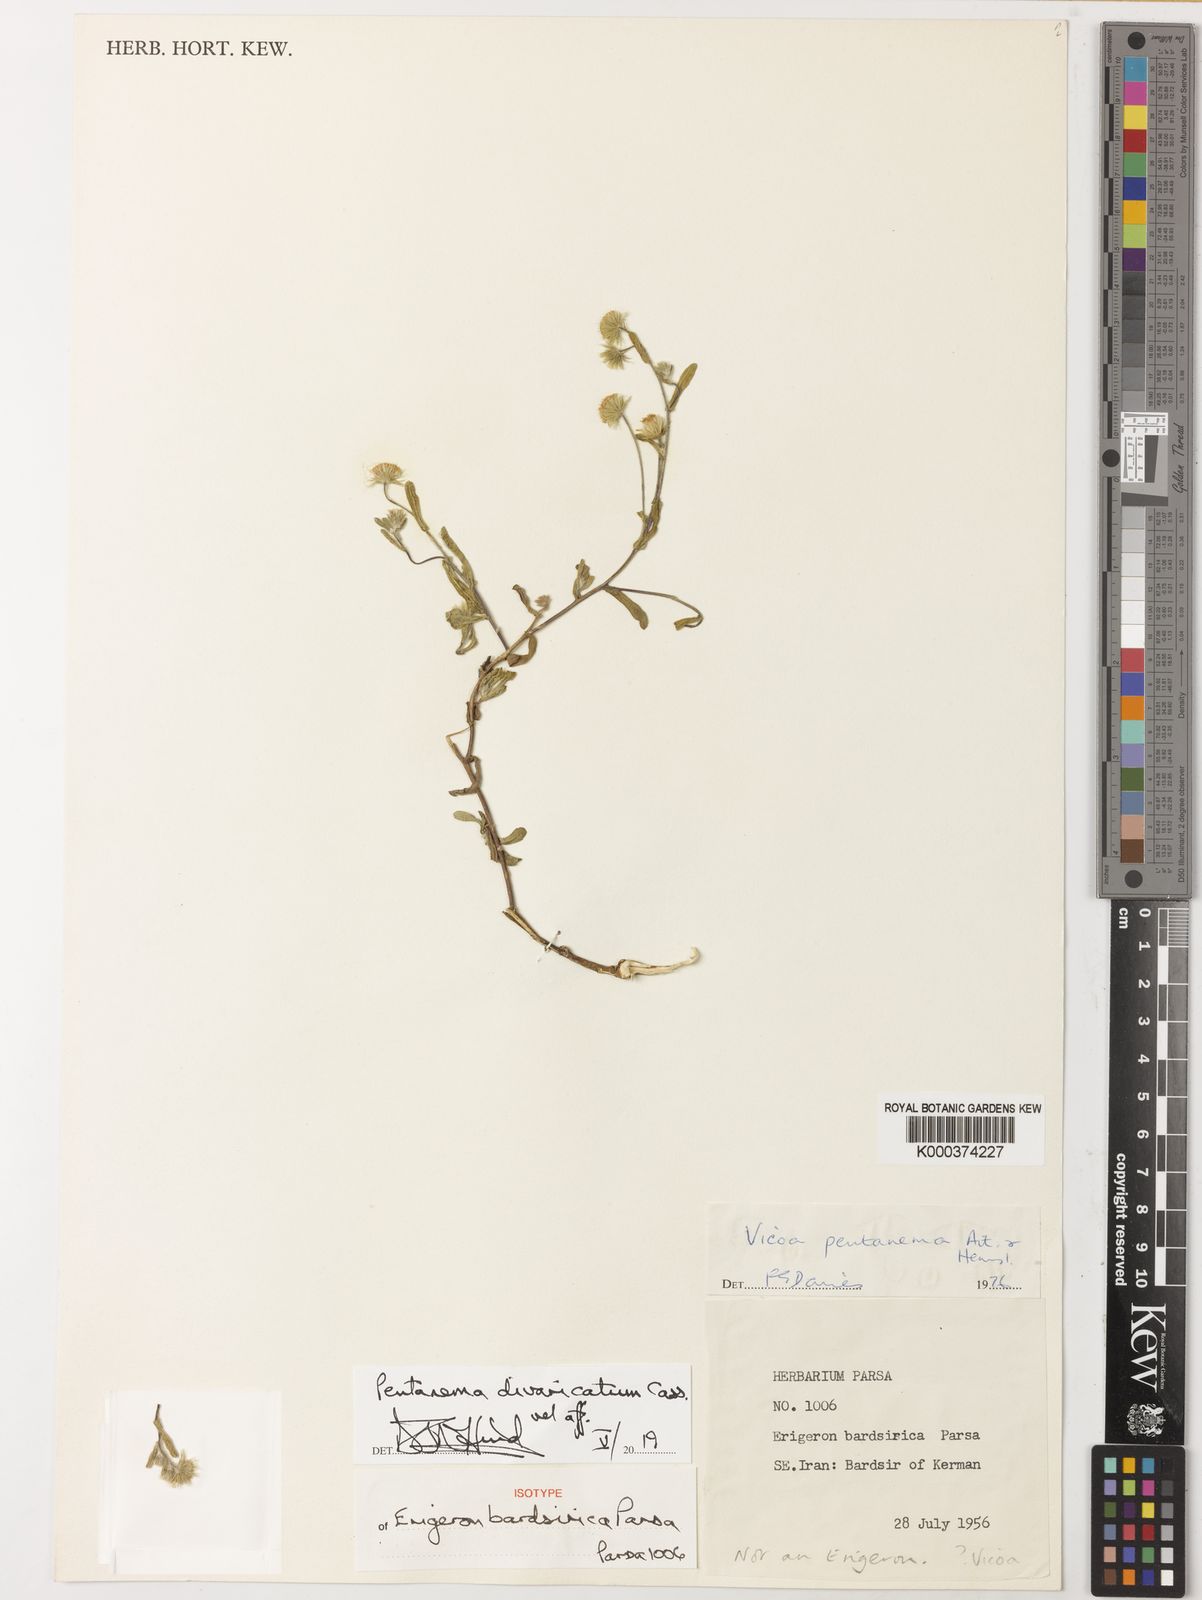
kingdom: Plantae
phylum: Tracheophyta
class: Magnoliopsida
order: Asterales
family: Asteraceae
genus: Pentanema
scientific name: Pentanema divaricatum
